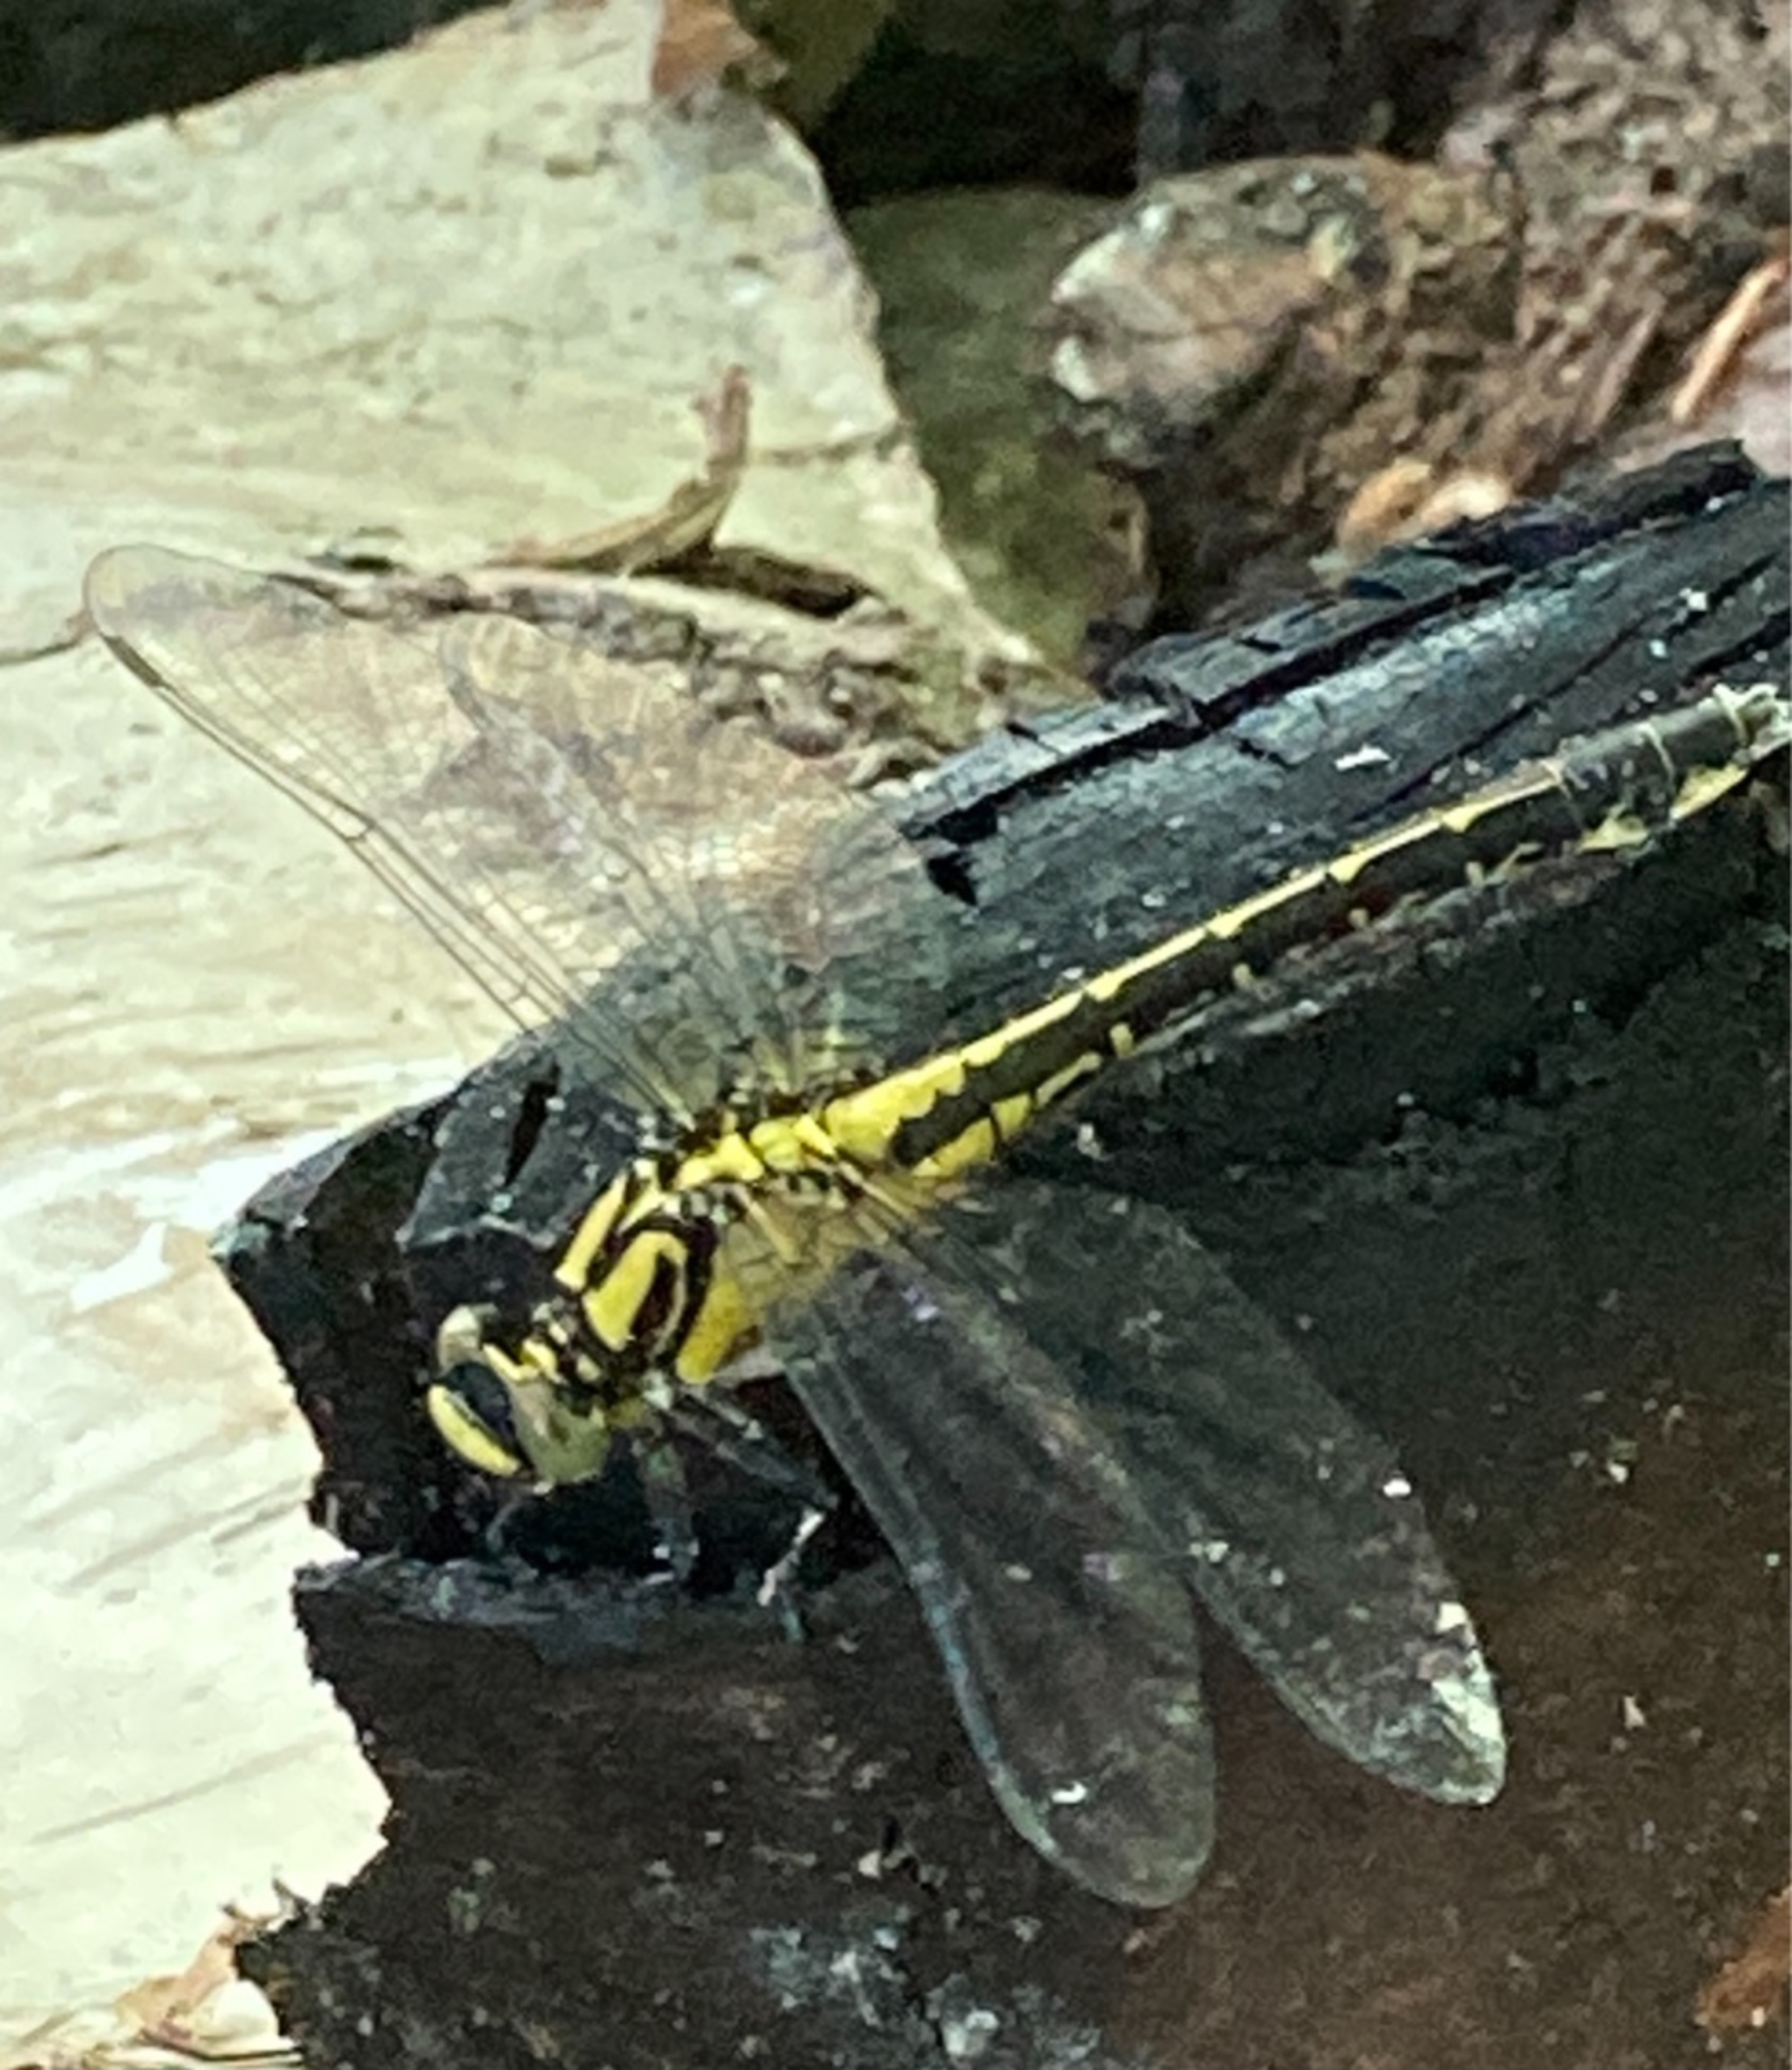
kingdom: Animalia
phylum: Arthropoda
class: Insecta
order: Odonata
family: Gomphidae
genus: Gomphus
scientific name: Gomphus vulgatissimus
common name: Almindelig flodguldsmed
